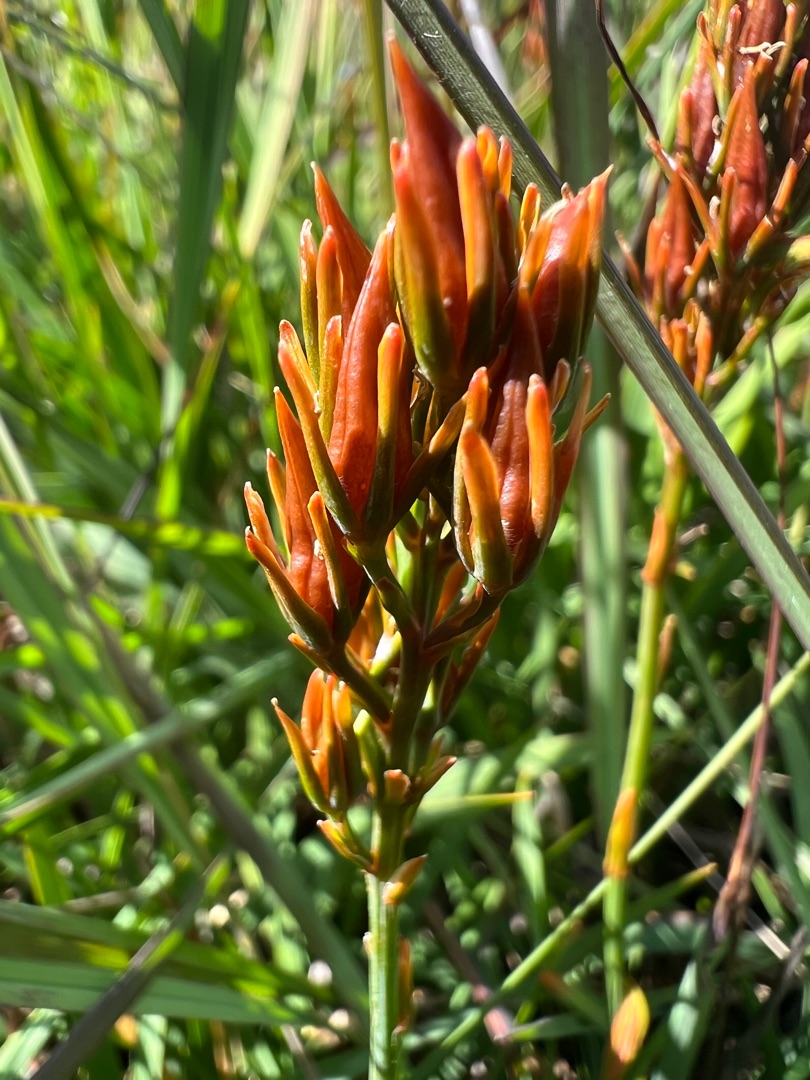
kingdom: Plantae
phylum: Tracheophyta
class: Liliopsida
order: Dioscoreales
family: Nartheciaceae
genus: Narthecium
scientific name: Narthecium ossifragum
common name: Benbræk
